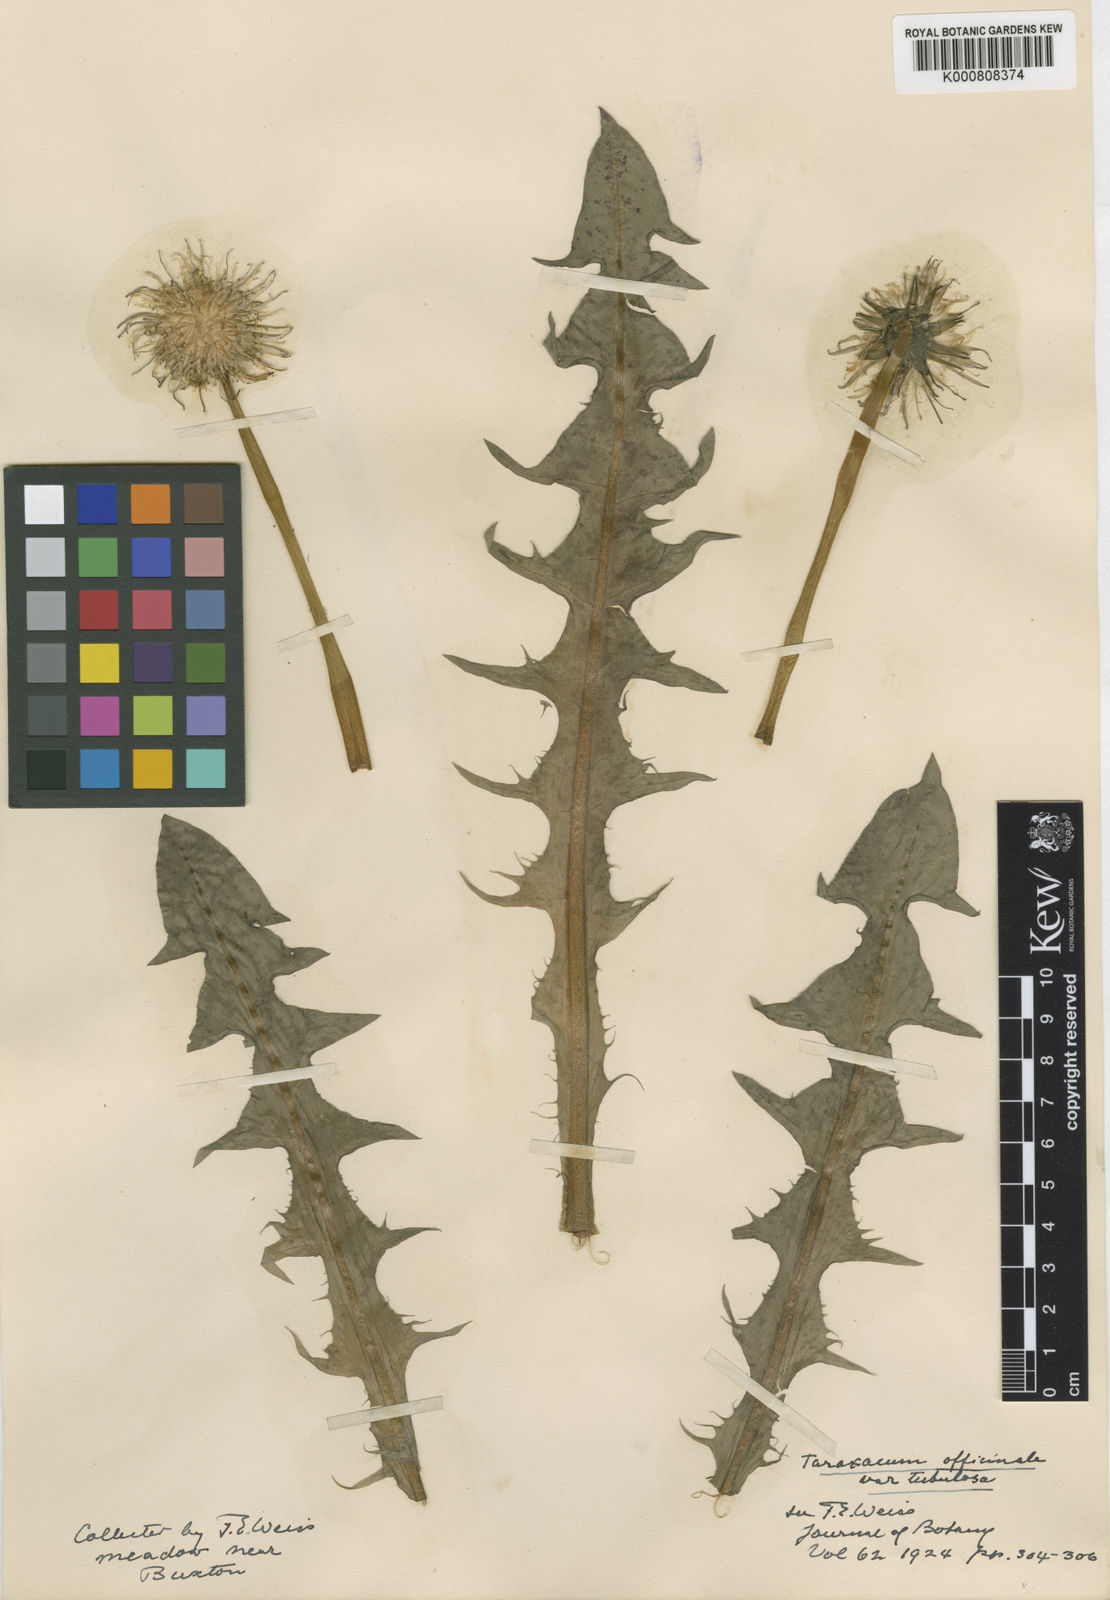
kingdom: Plantae
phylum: Tracheophyta
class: Magnoliopsida
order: Asterales
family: Asteraceae
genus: Taraxacum
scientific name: Taraxacum officinale
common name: Common dandelion
